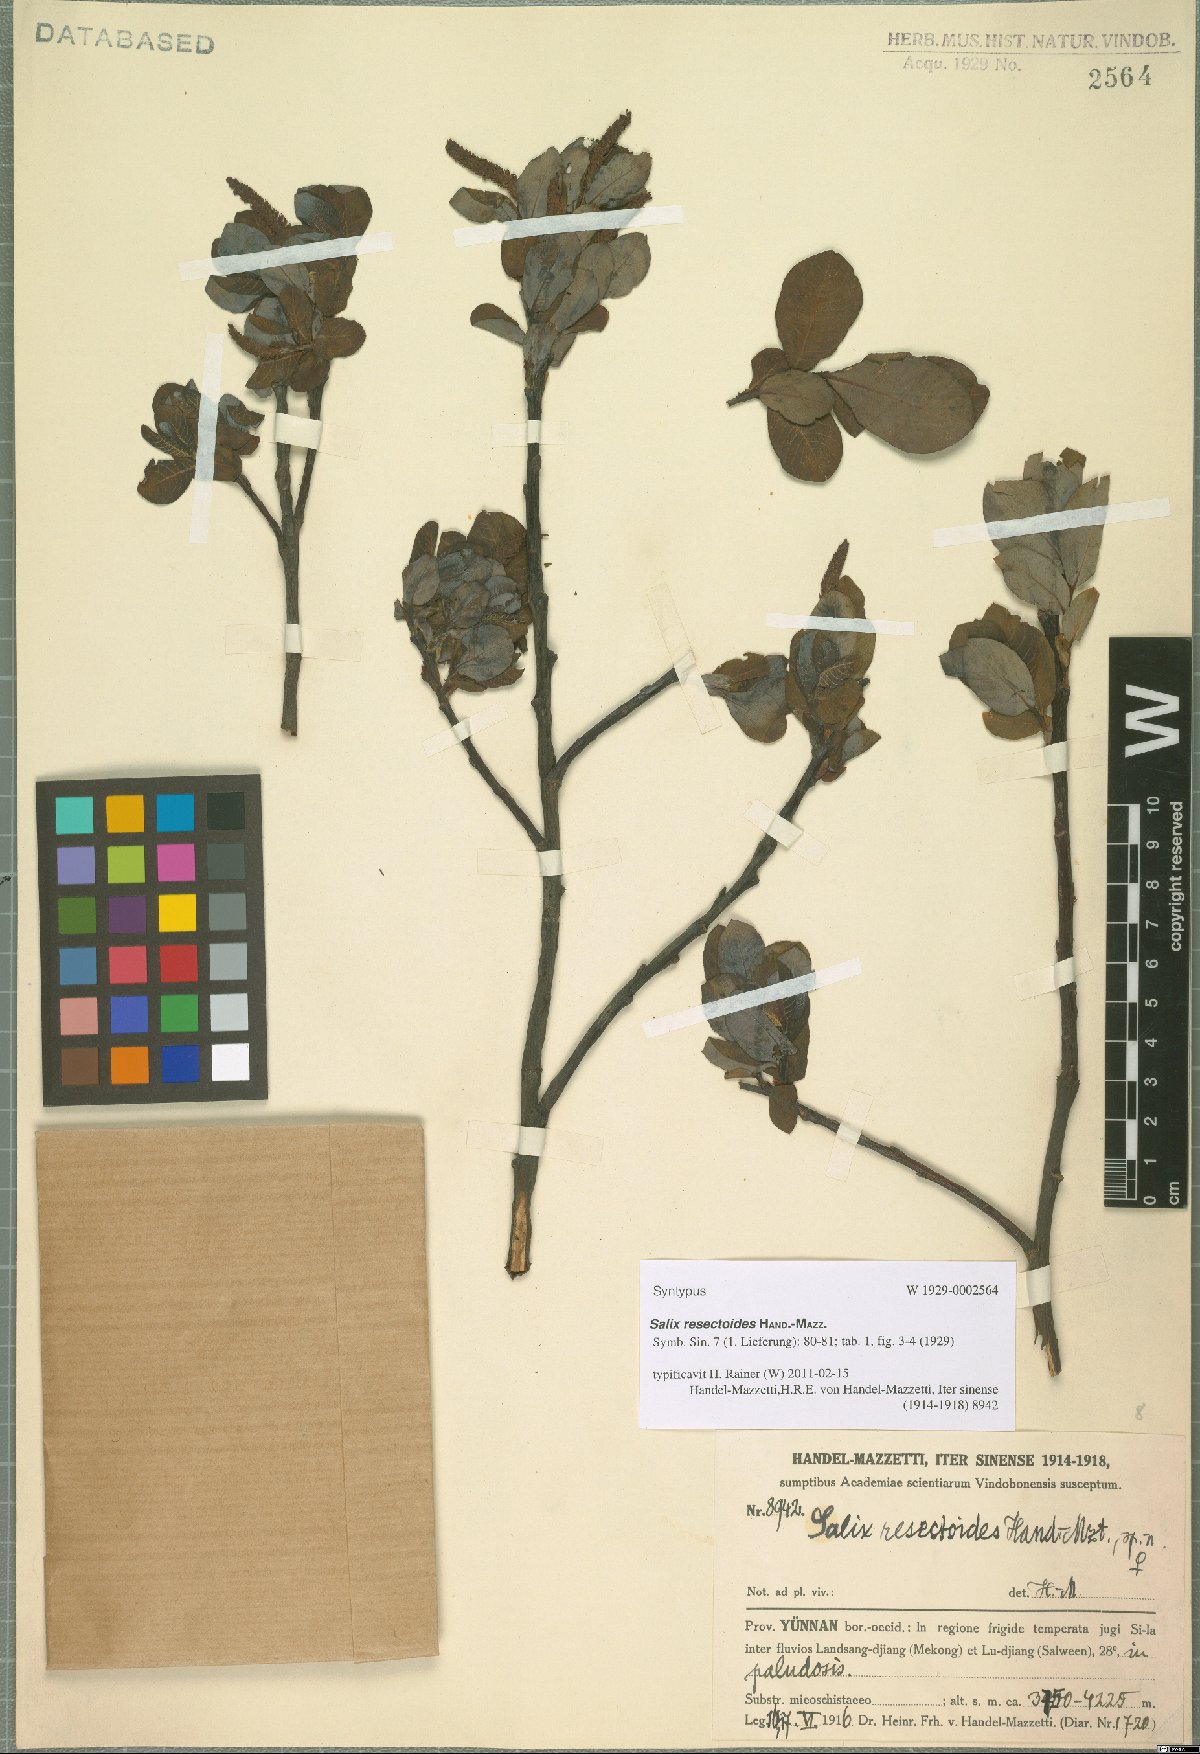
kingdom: Plantae
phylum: Tracheophyta
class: Magnoliopsida
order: Malpighiales
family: Salicaceae
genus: Salix
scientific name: Salix resectoides
